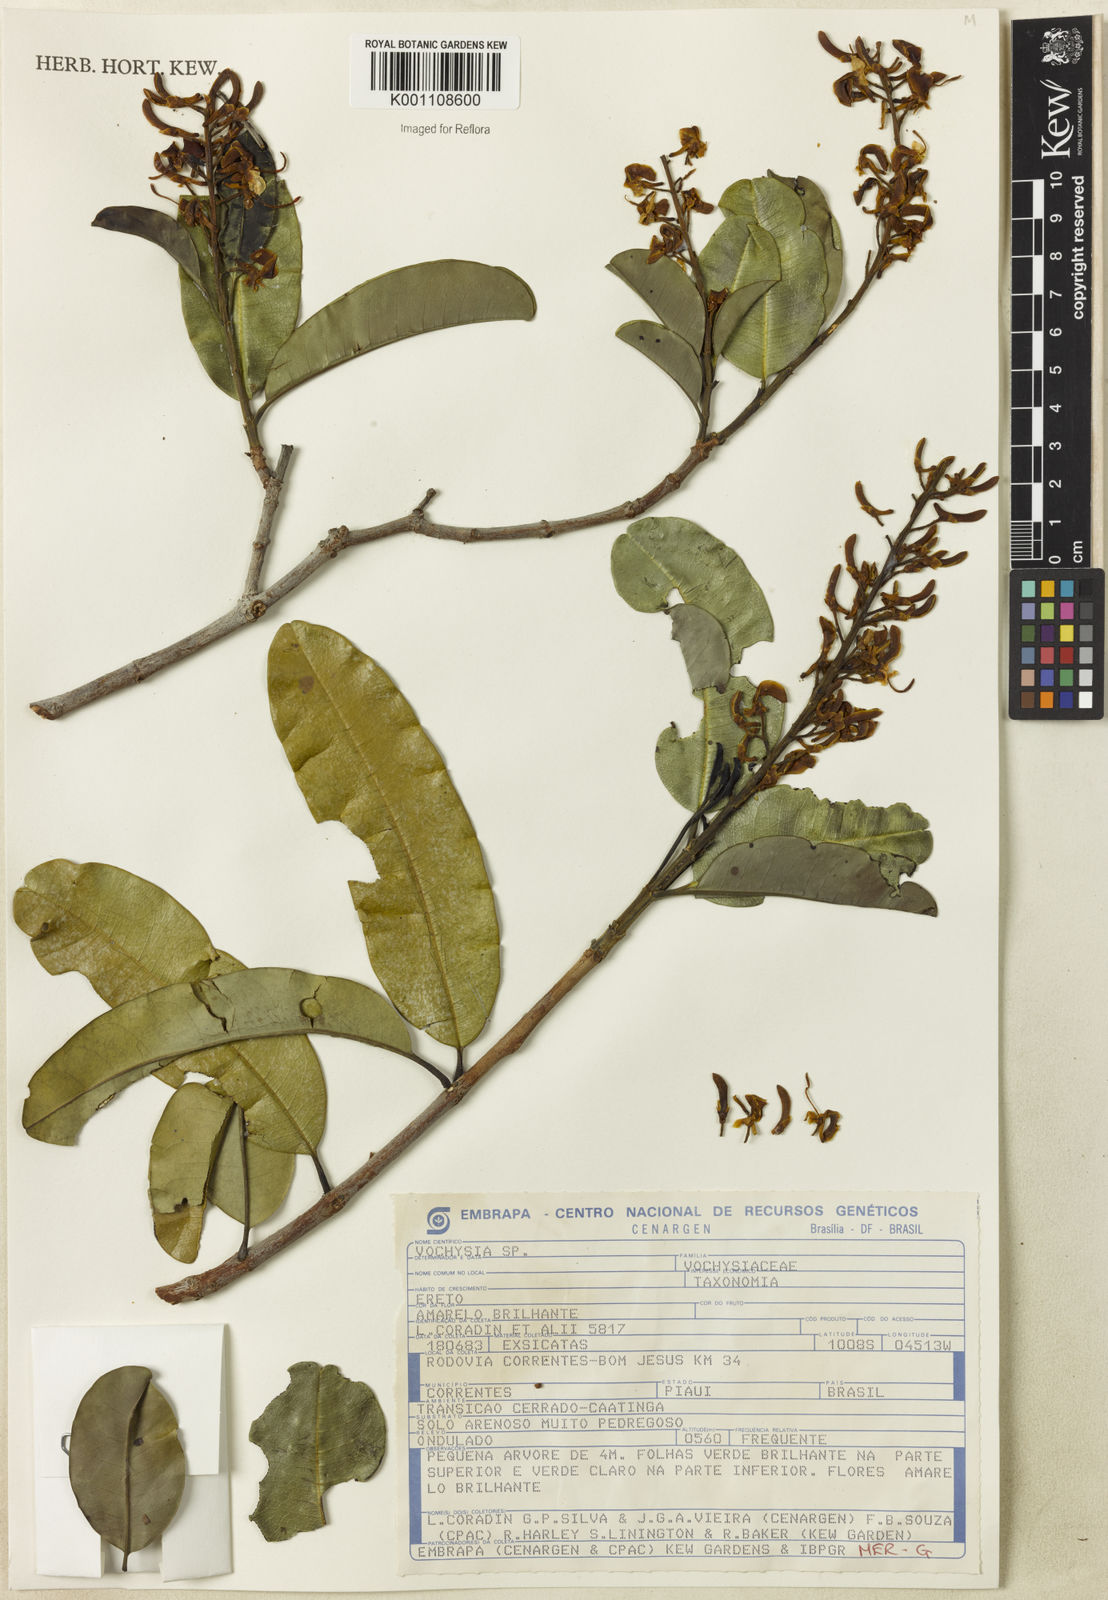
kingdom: Plantae
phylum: Tracheophyta
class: Magnoliopsida
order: Myrtales
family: Vochysiaceae
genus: Vochysia
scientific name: Vochysia
